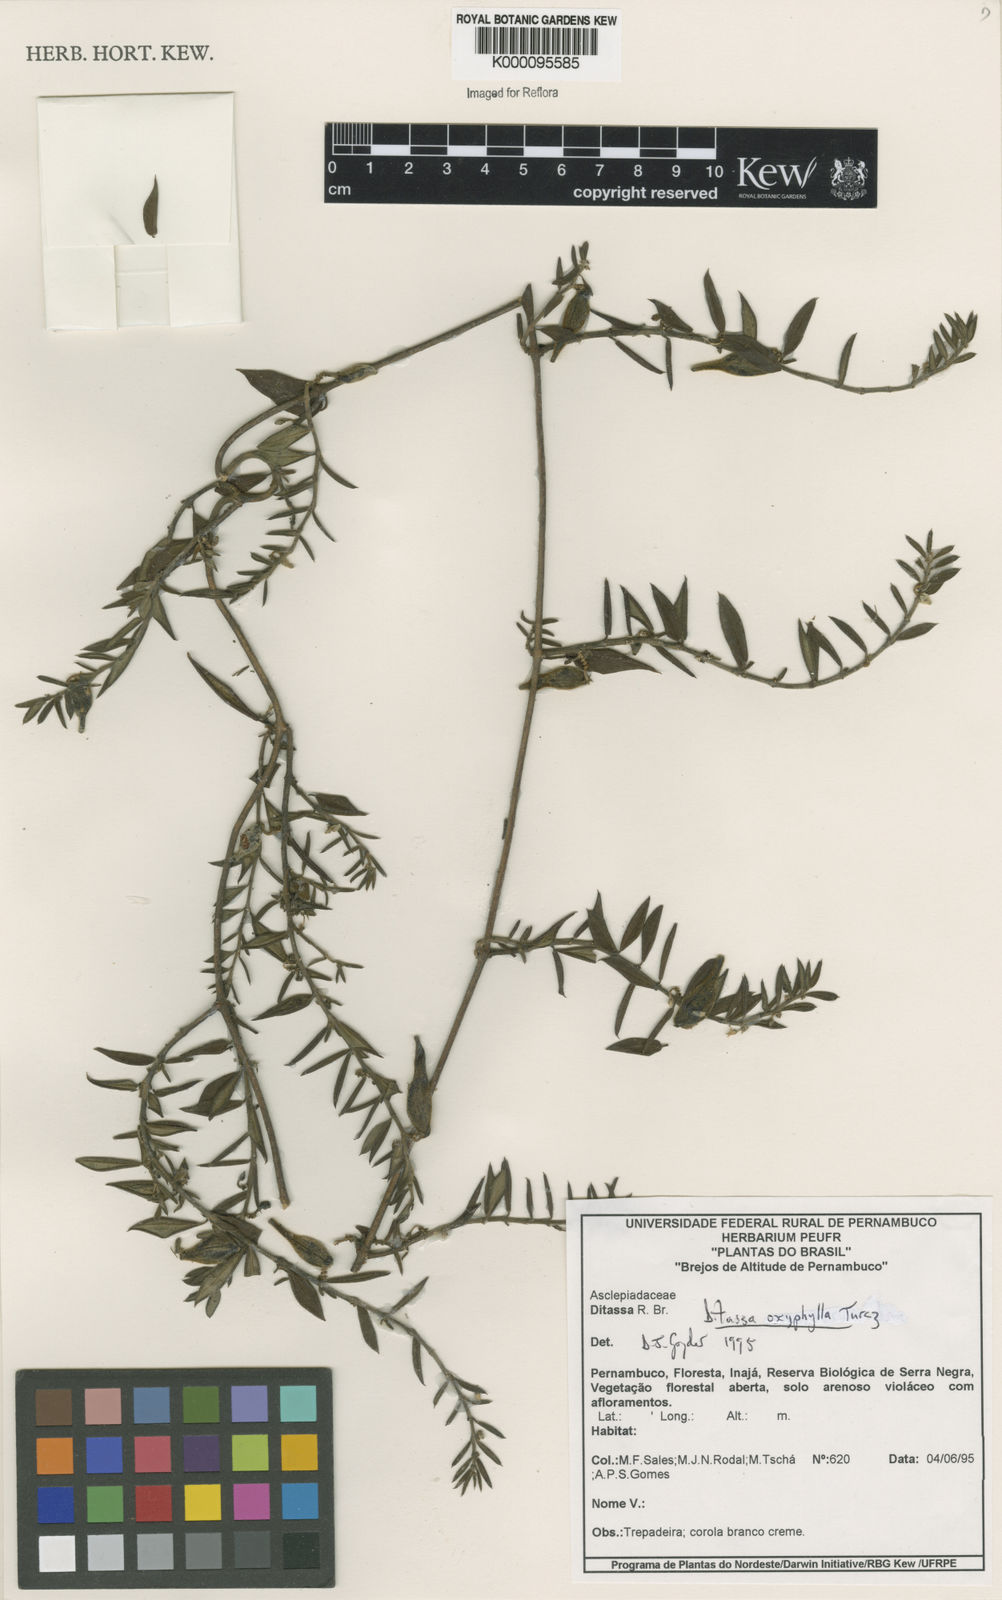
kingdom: Plantae
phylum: Tracheophyta
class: Magnoliopsida
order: Gentianales
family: Apocynaceae
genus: Ditassa
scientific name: Ditassa oxyphylla
